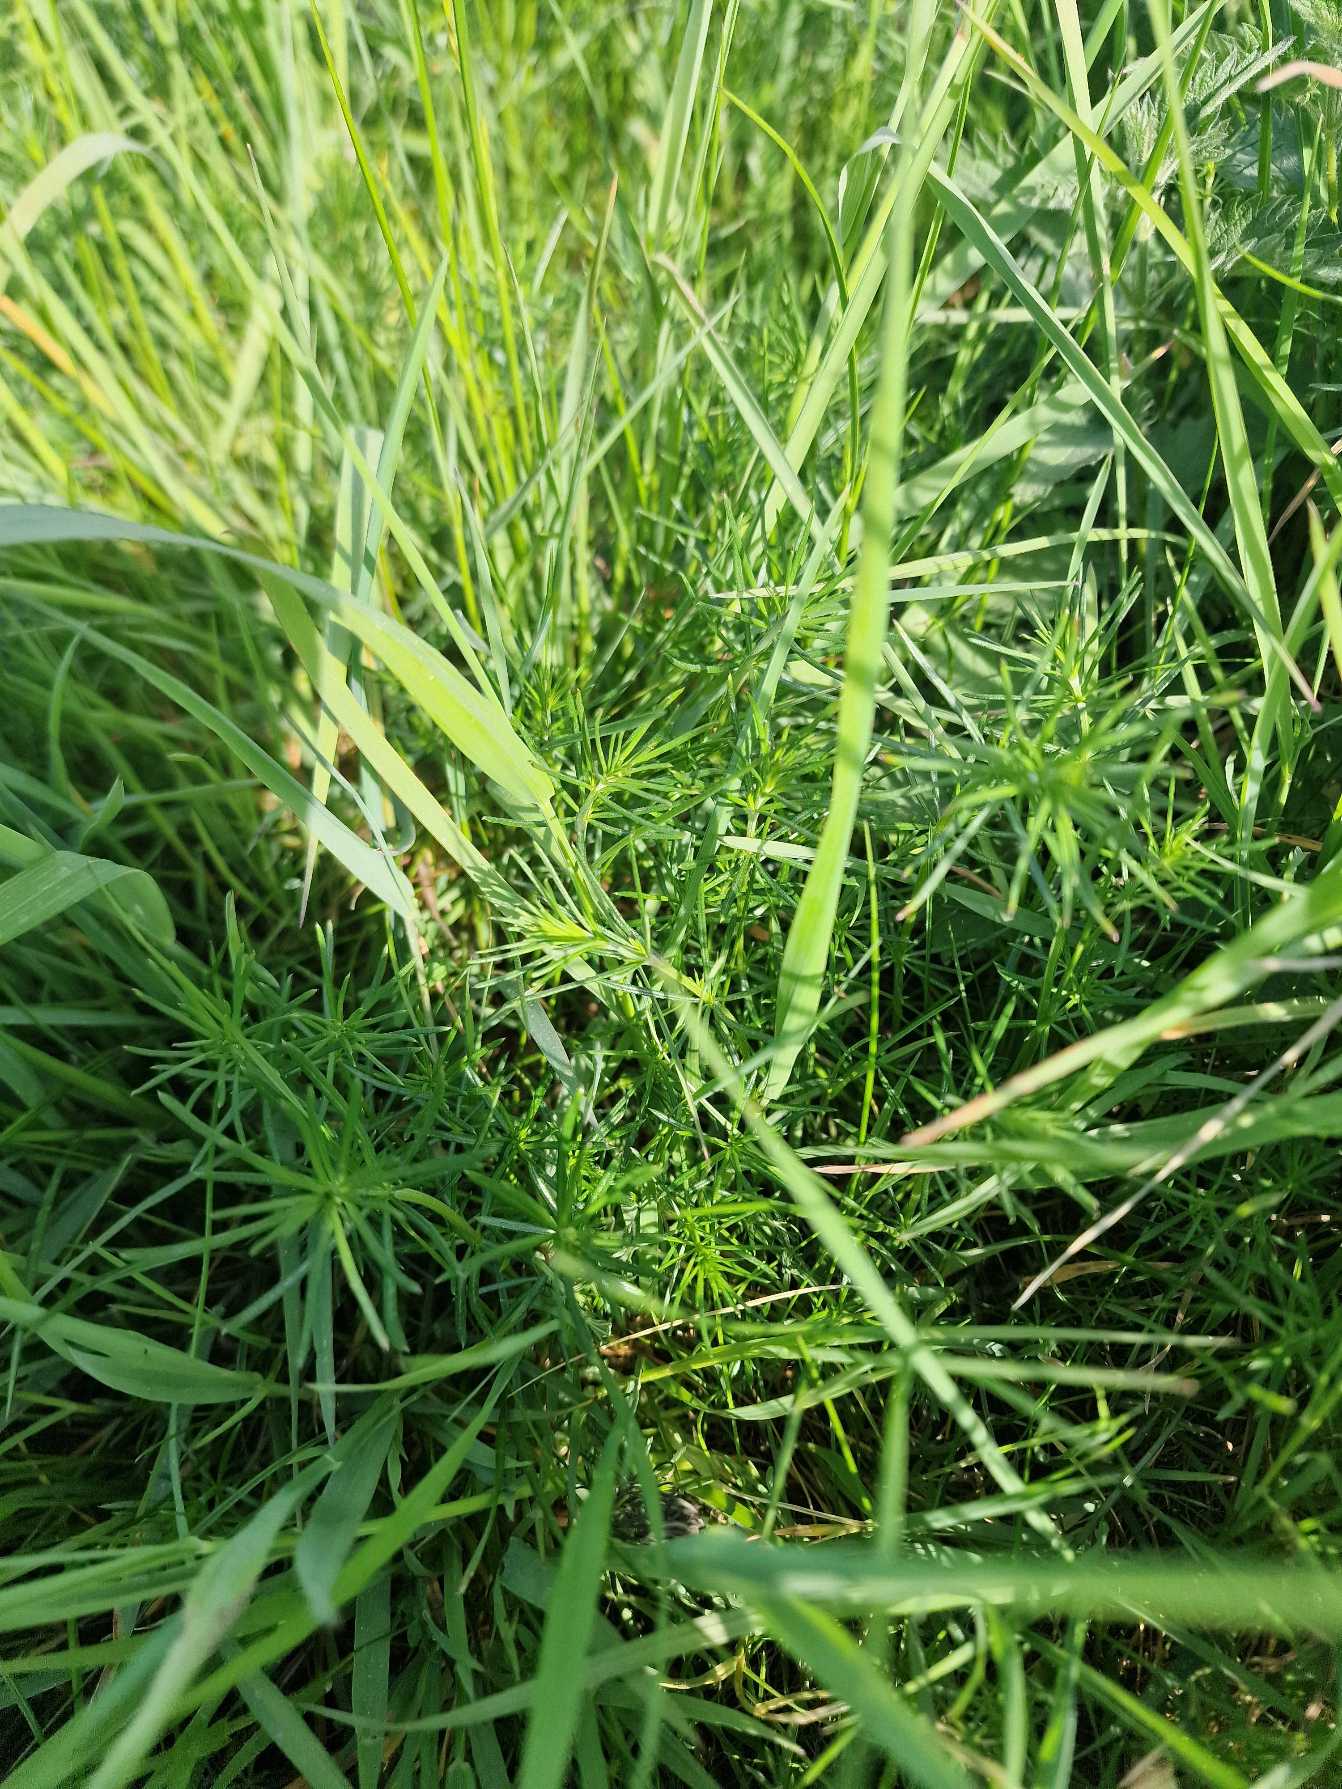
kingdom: Plantae
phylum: Tracheophyta
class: Magnoliopsida
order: Gentianales
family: Rubiaceae
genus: Galium
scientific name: Galium verum
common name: Gul snerre
